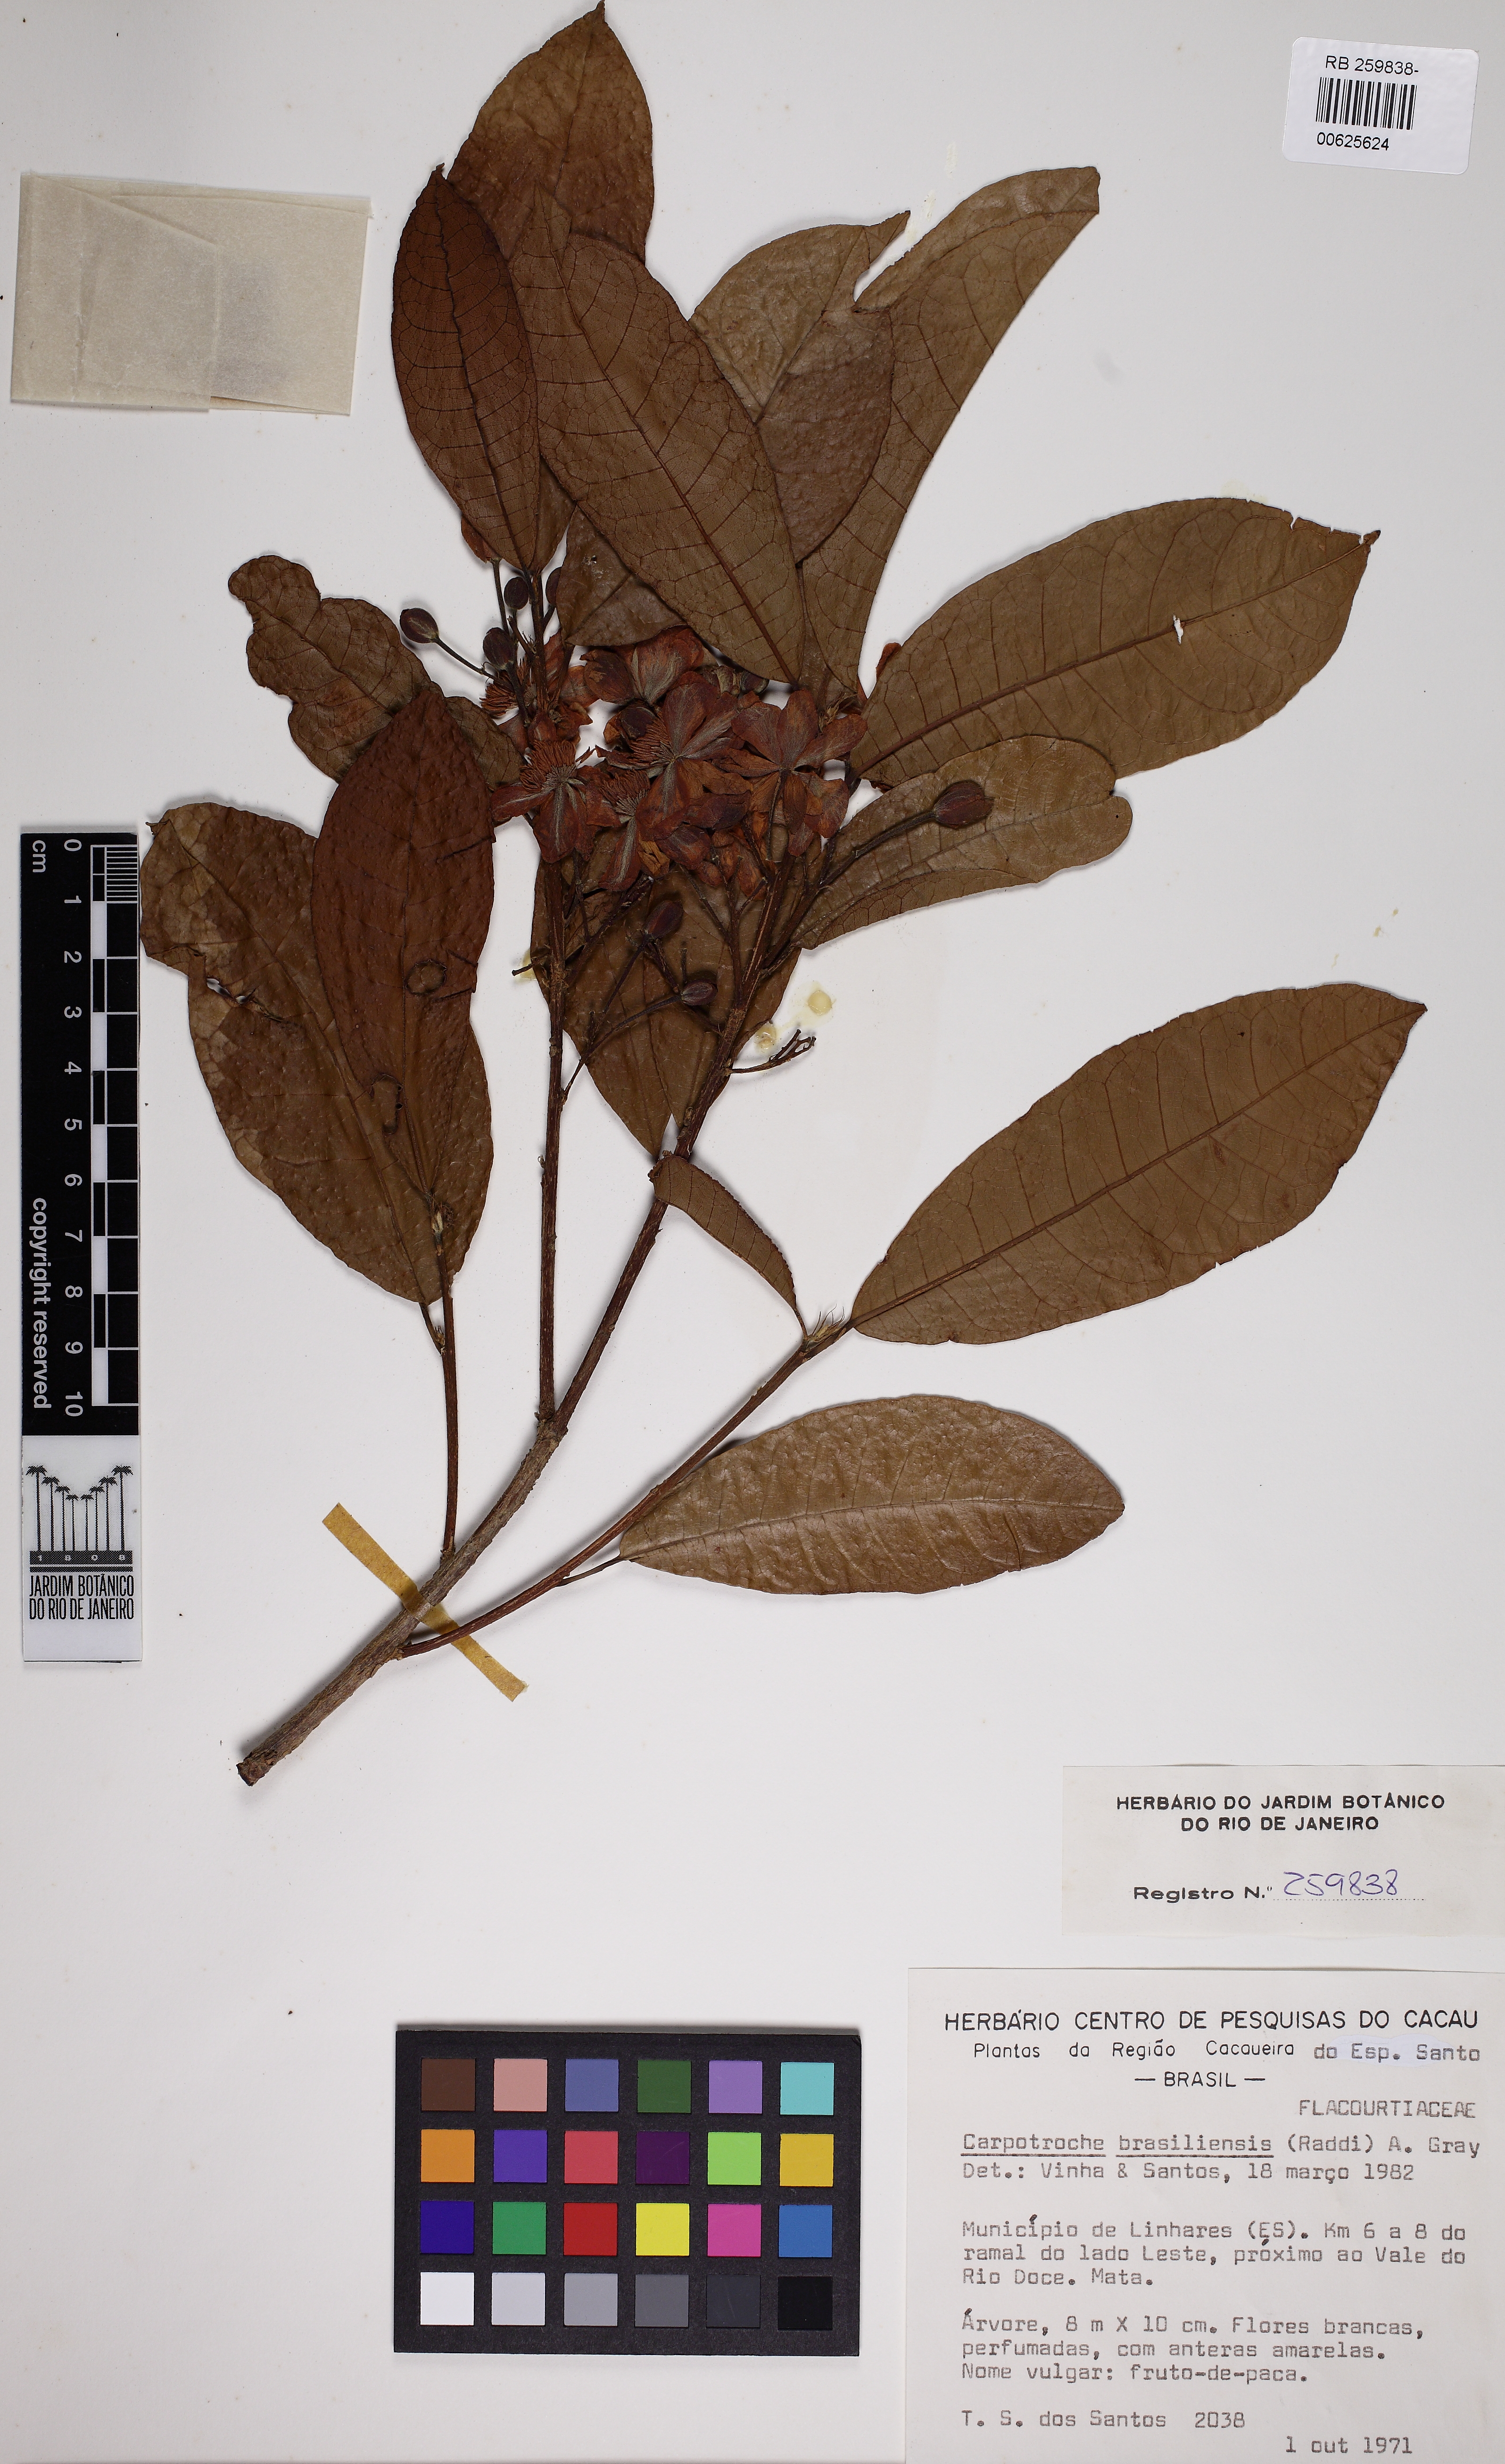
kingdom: Plantae
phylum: Tracheophyta
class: Magnoliopsida
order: Malpighiales
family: Achariaceae
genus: Carpotroche
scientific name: Carpotroche brasiliensis
